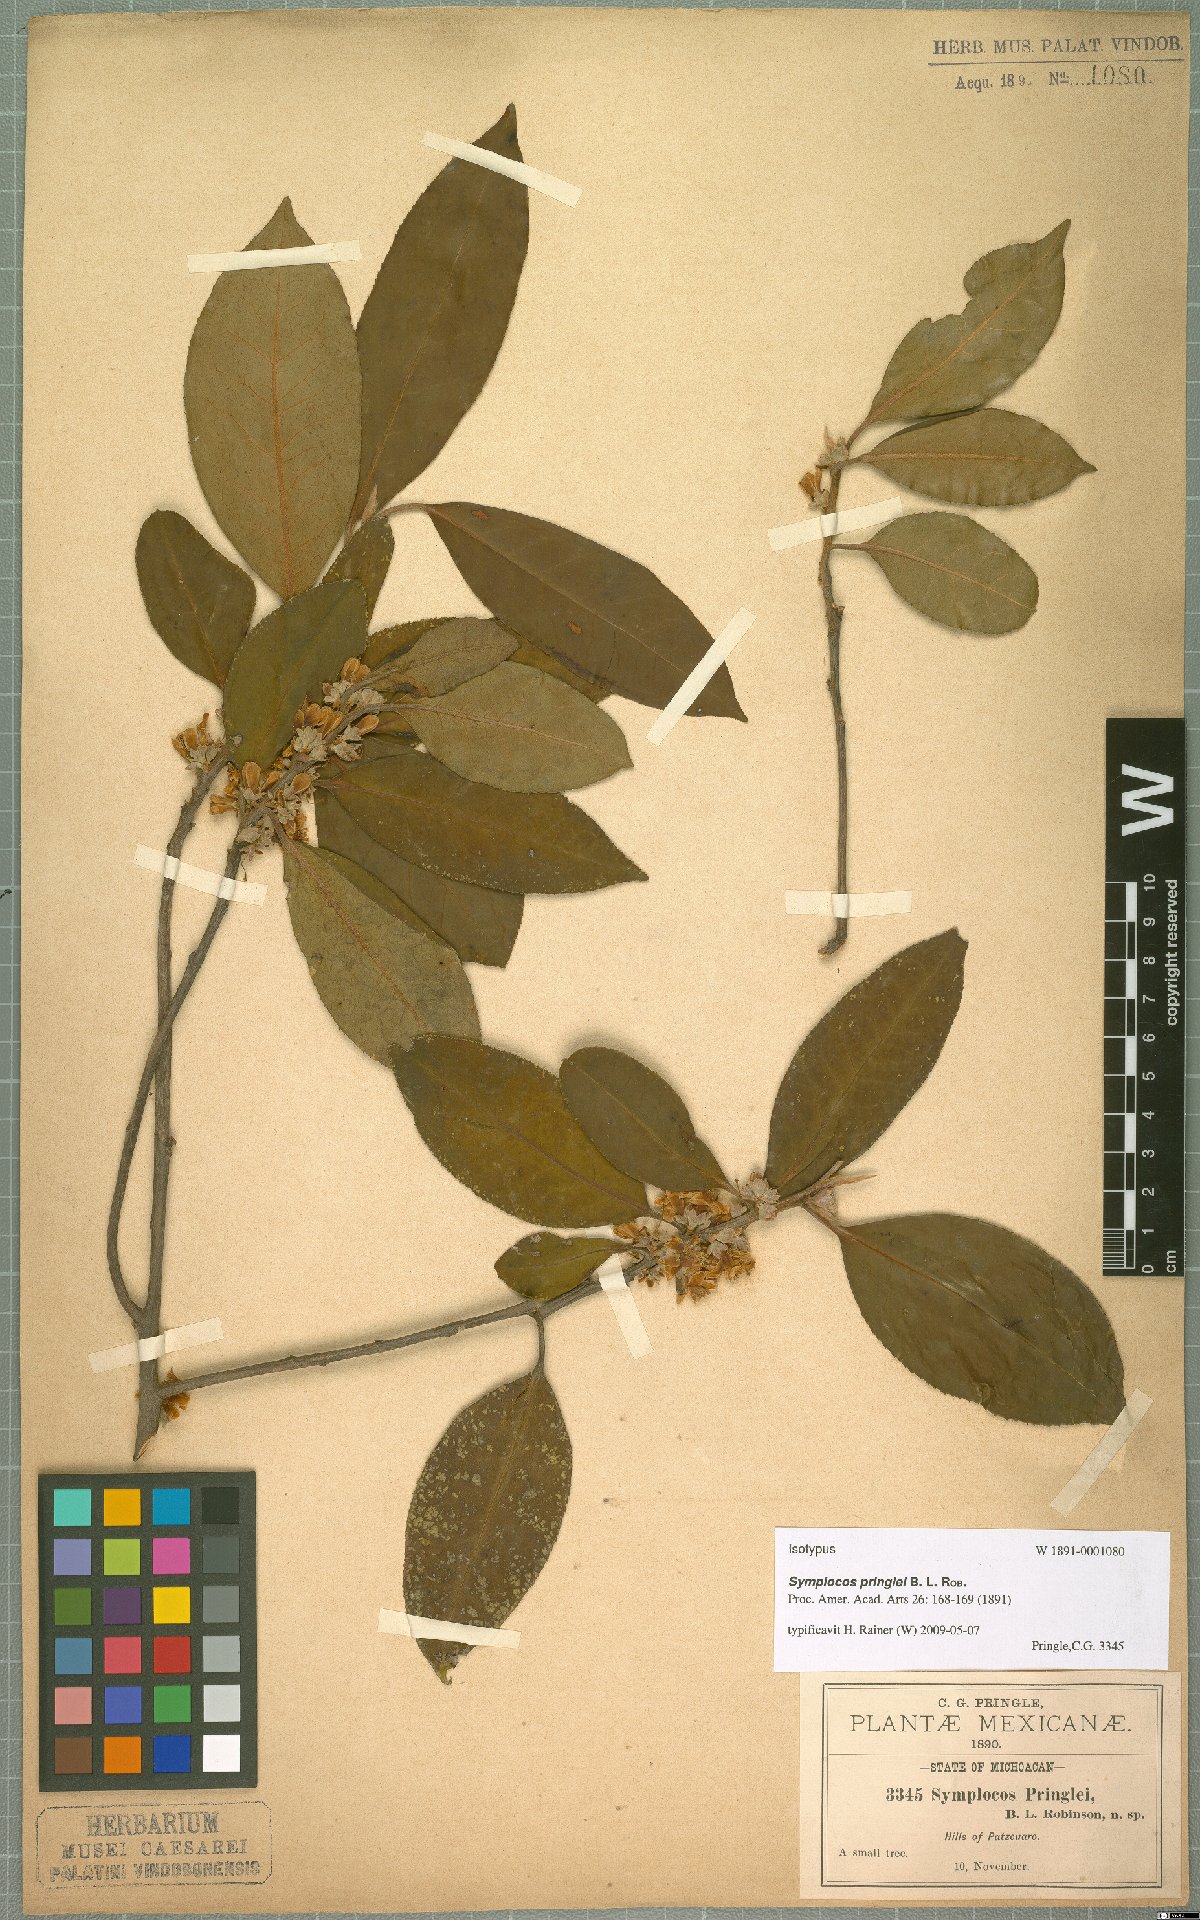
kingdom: Plantae
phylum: Tracheophyta
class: Magnoliopsida
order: Ericales
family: Symplocaceae
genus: Symplocos
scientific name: Symplocos citrea
